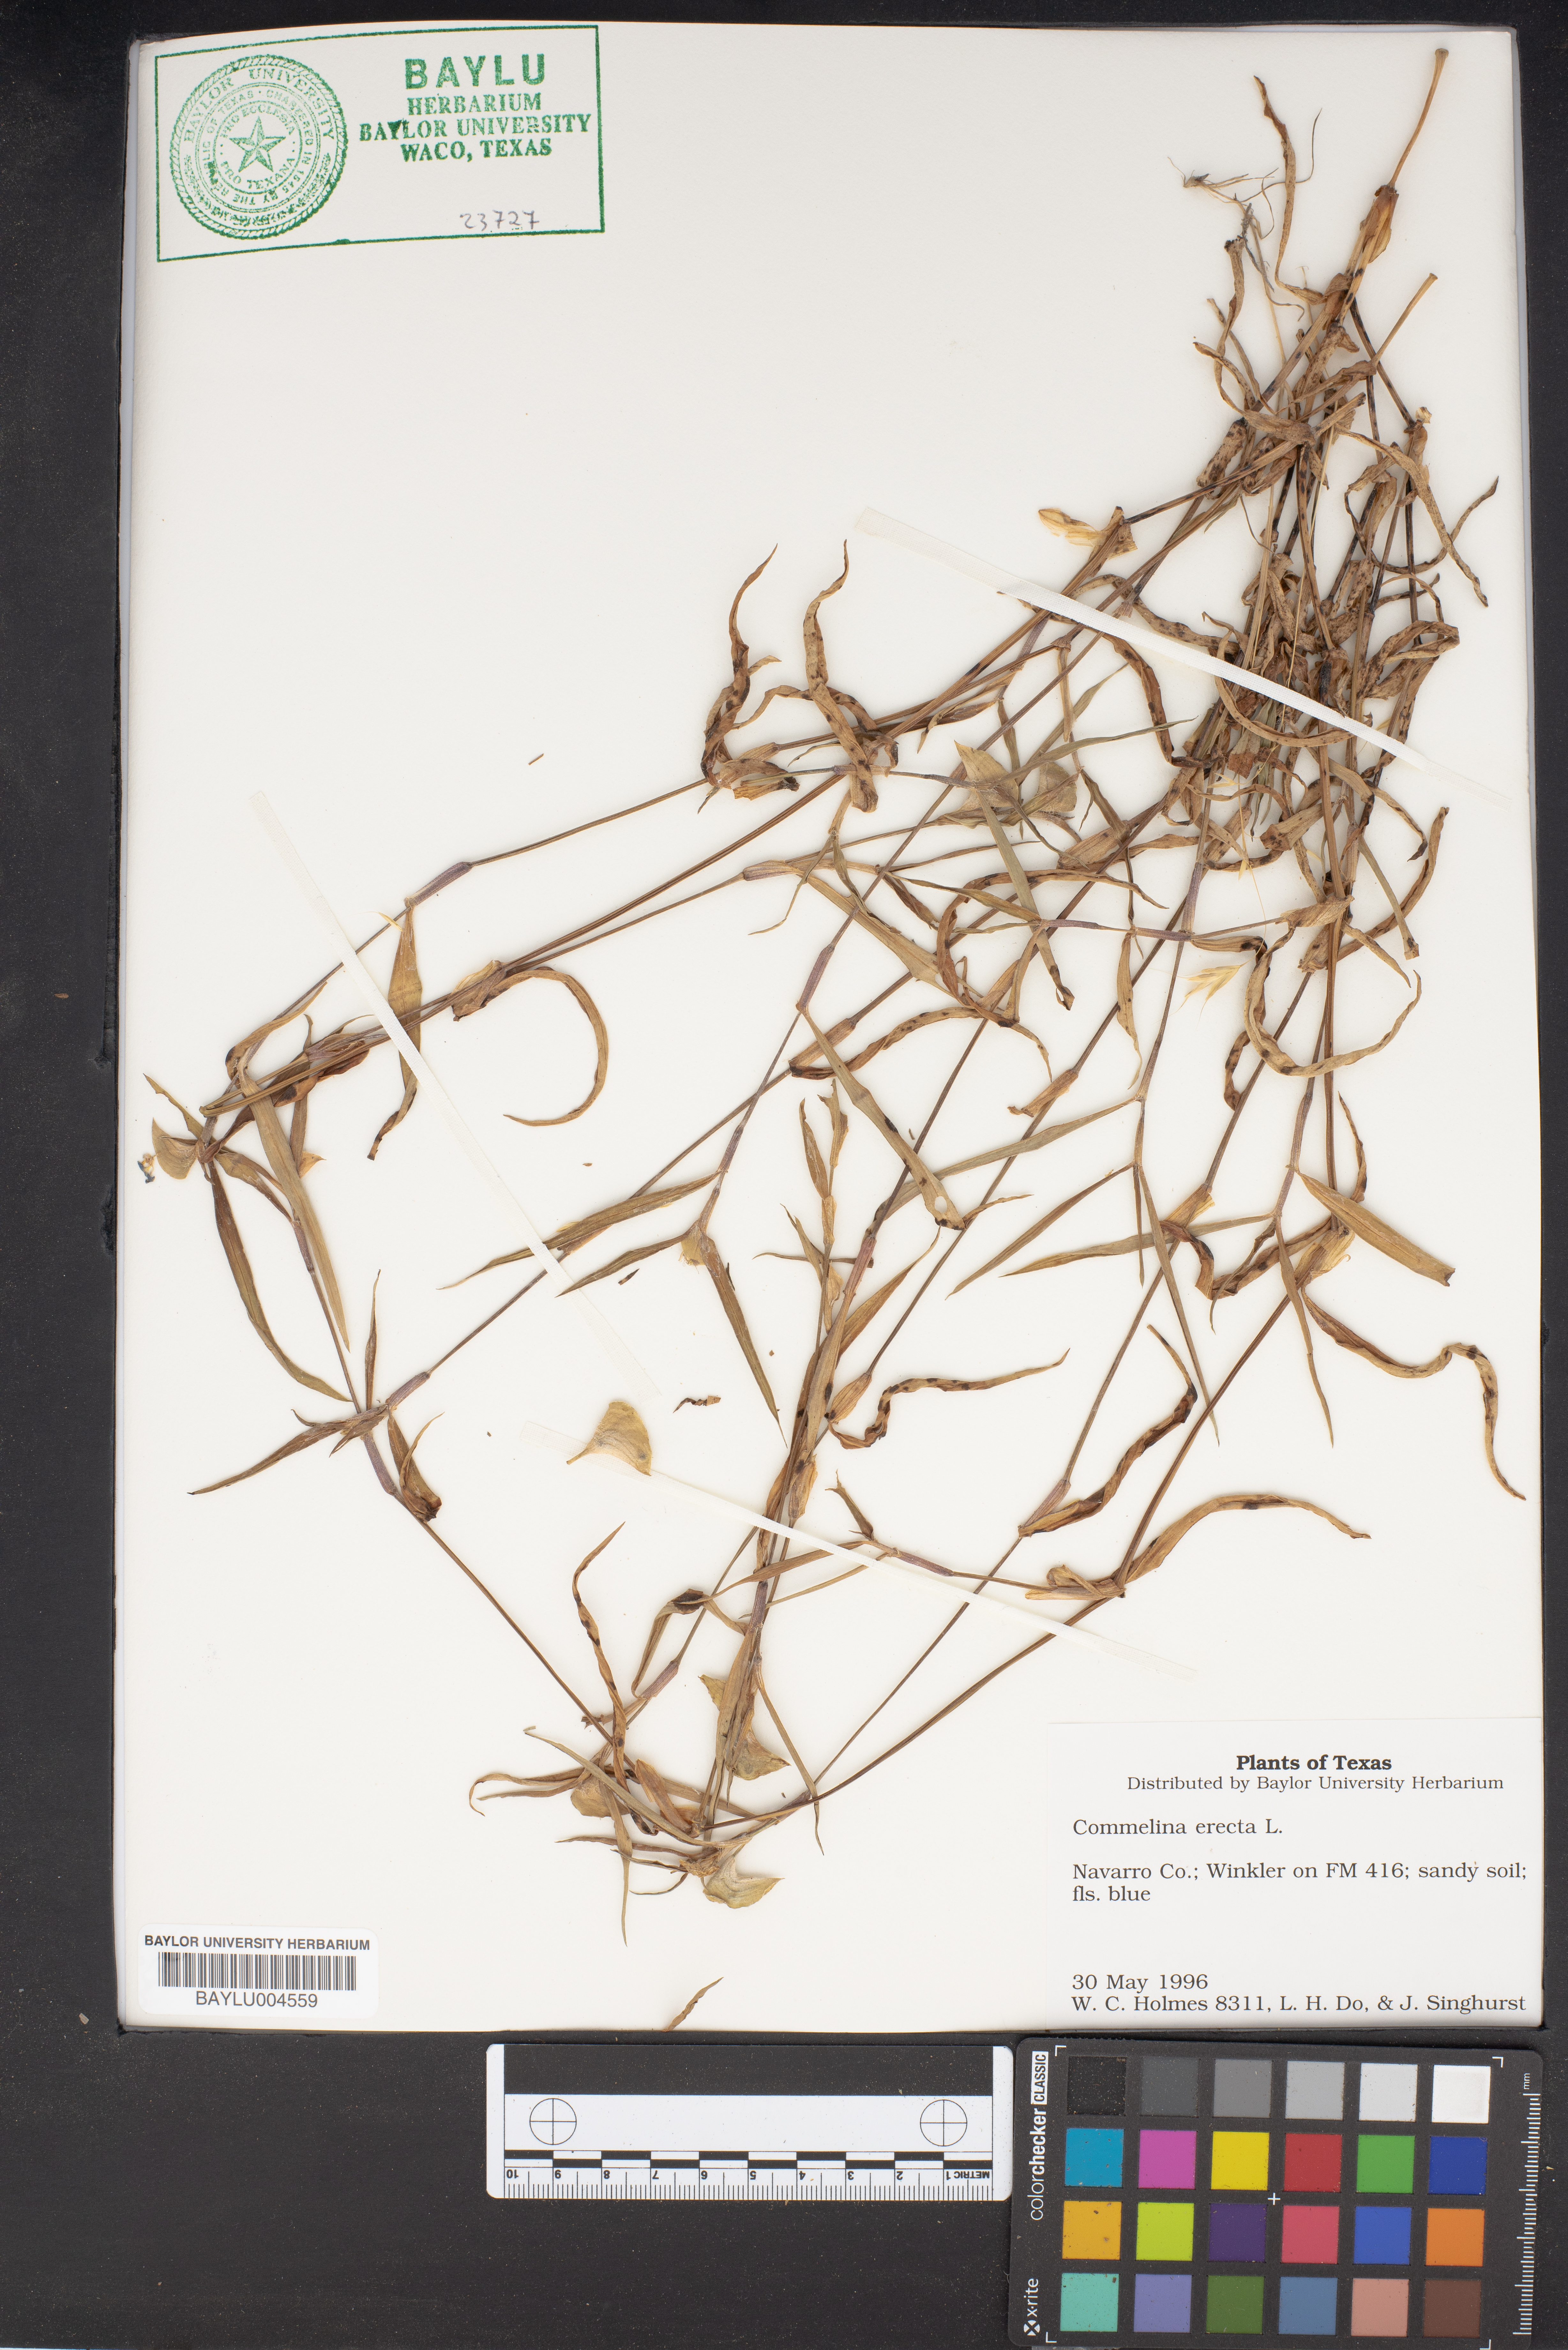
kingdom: Plantae
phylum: Tracheophyta
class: Liliopsida
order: Commelinales
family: Commelinaceae
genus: Commelina
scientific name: Commelina erecta
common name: Blousel blommetjie
